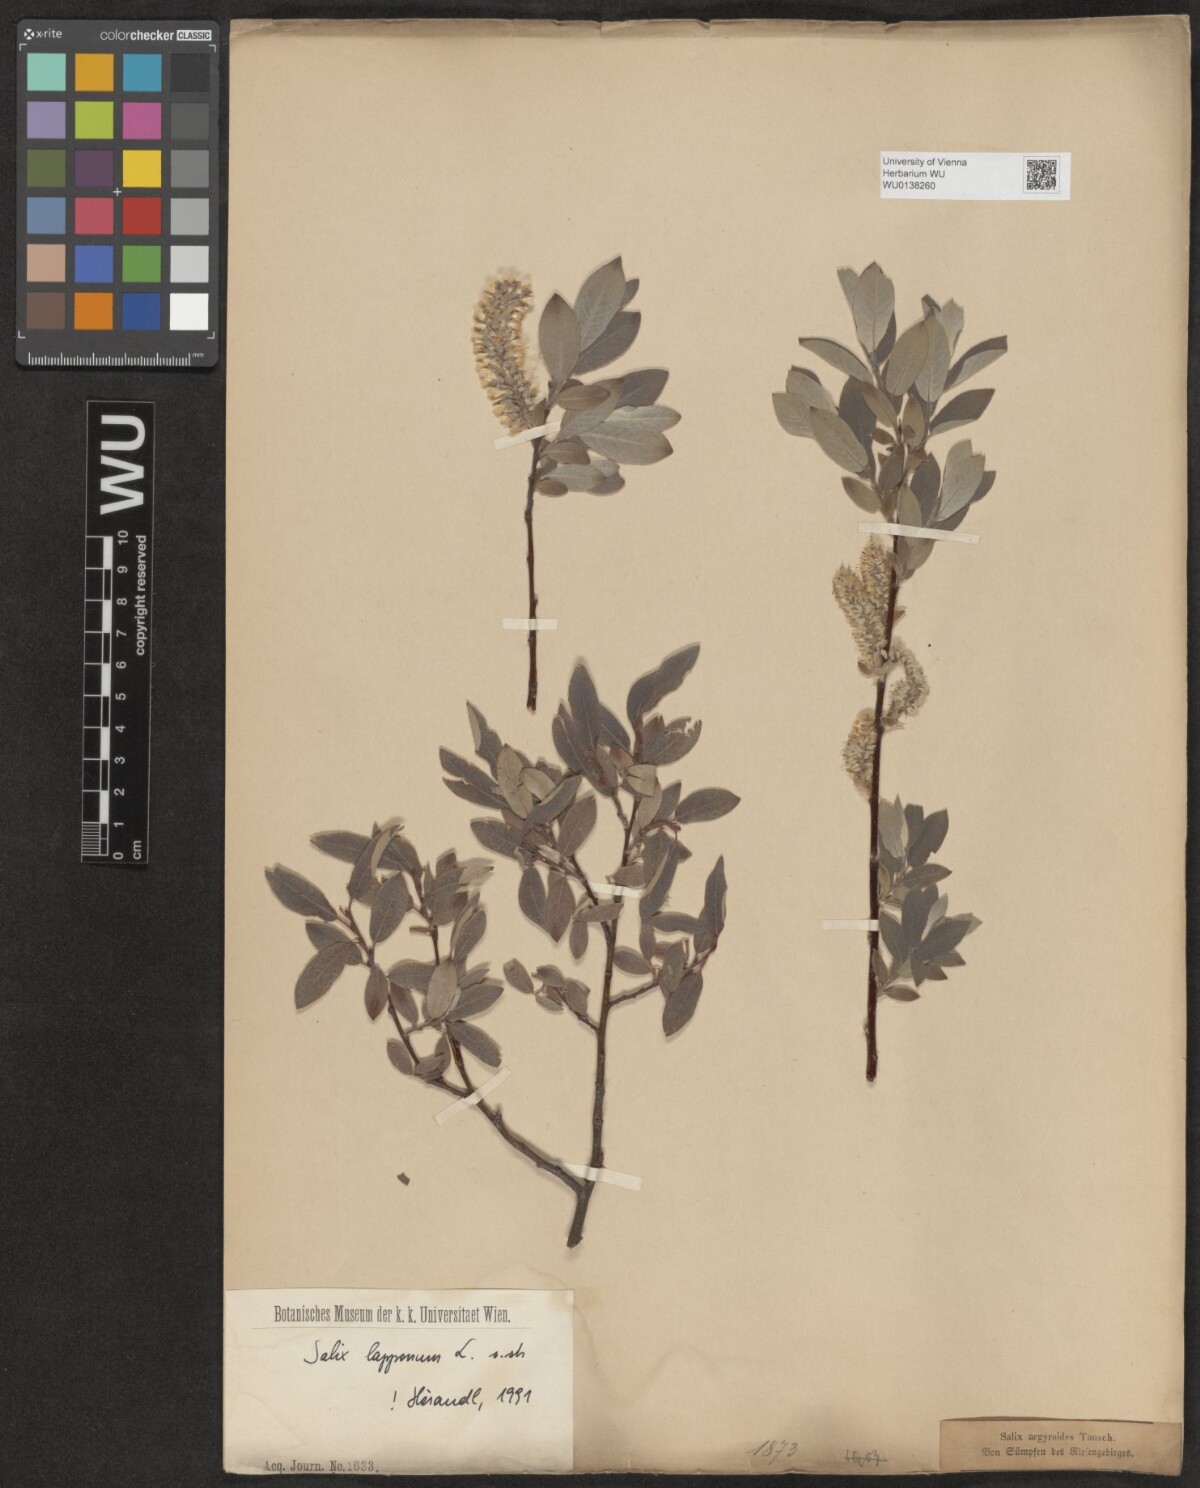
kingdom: Plantae
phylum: Tracheophyta
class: Magnoliopsida
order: Malpighiales
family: Salicaceae
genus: Salix
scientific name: Salix lapponum
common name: Downy willow
